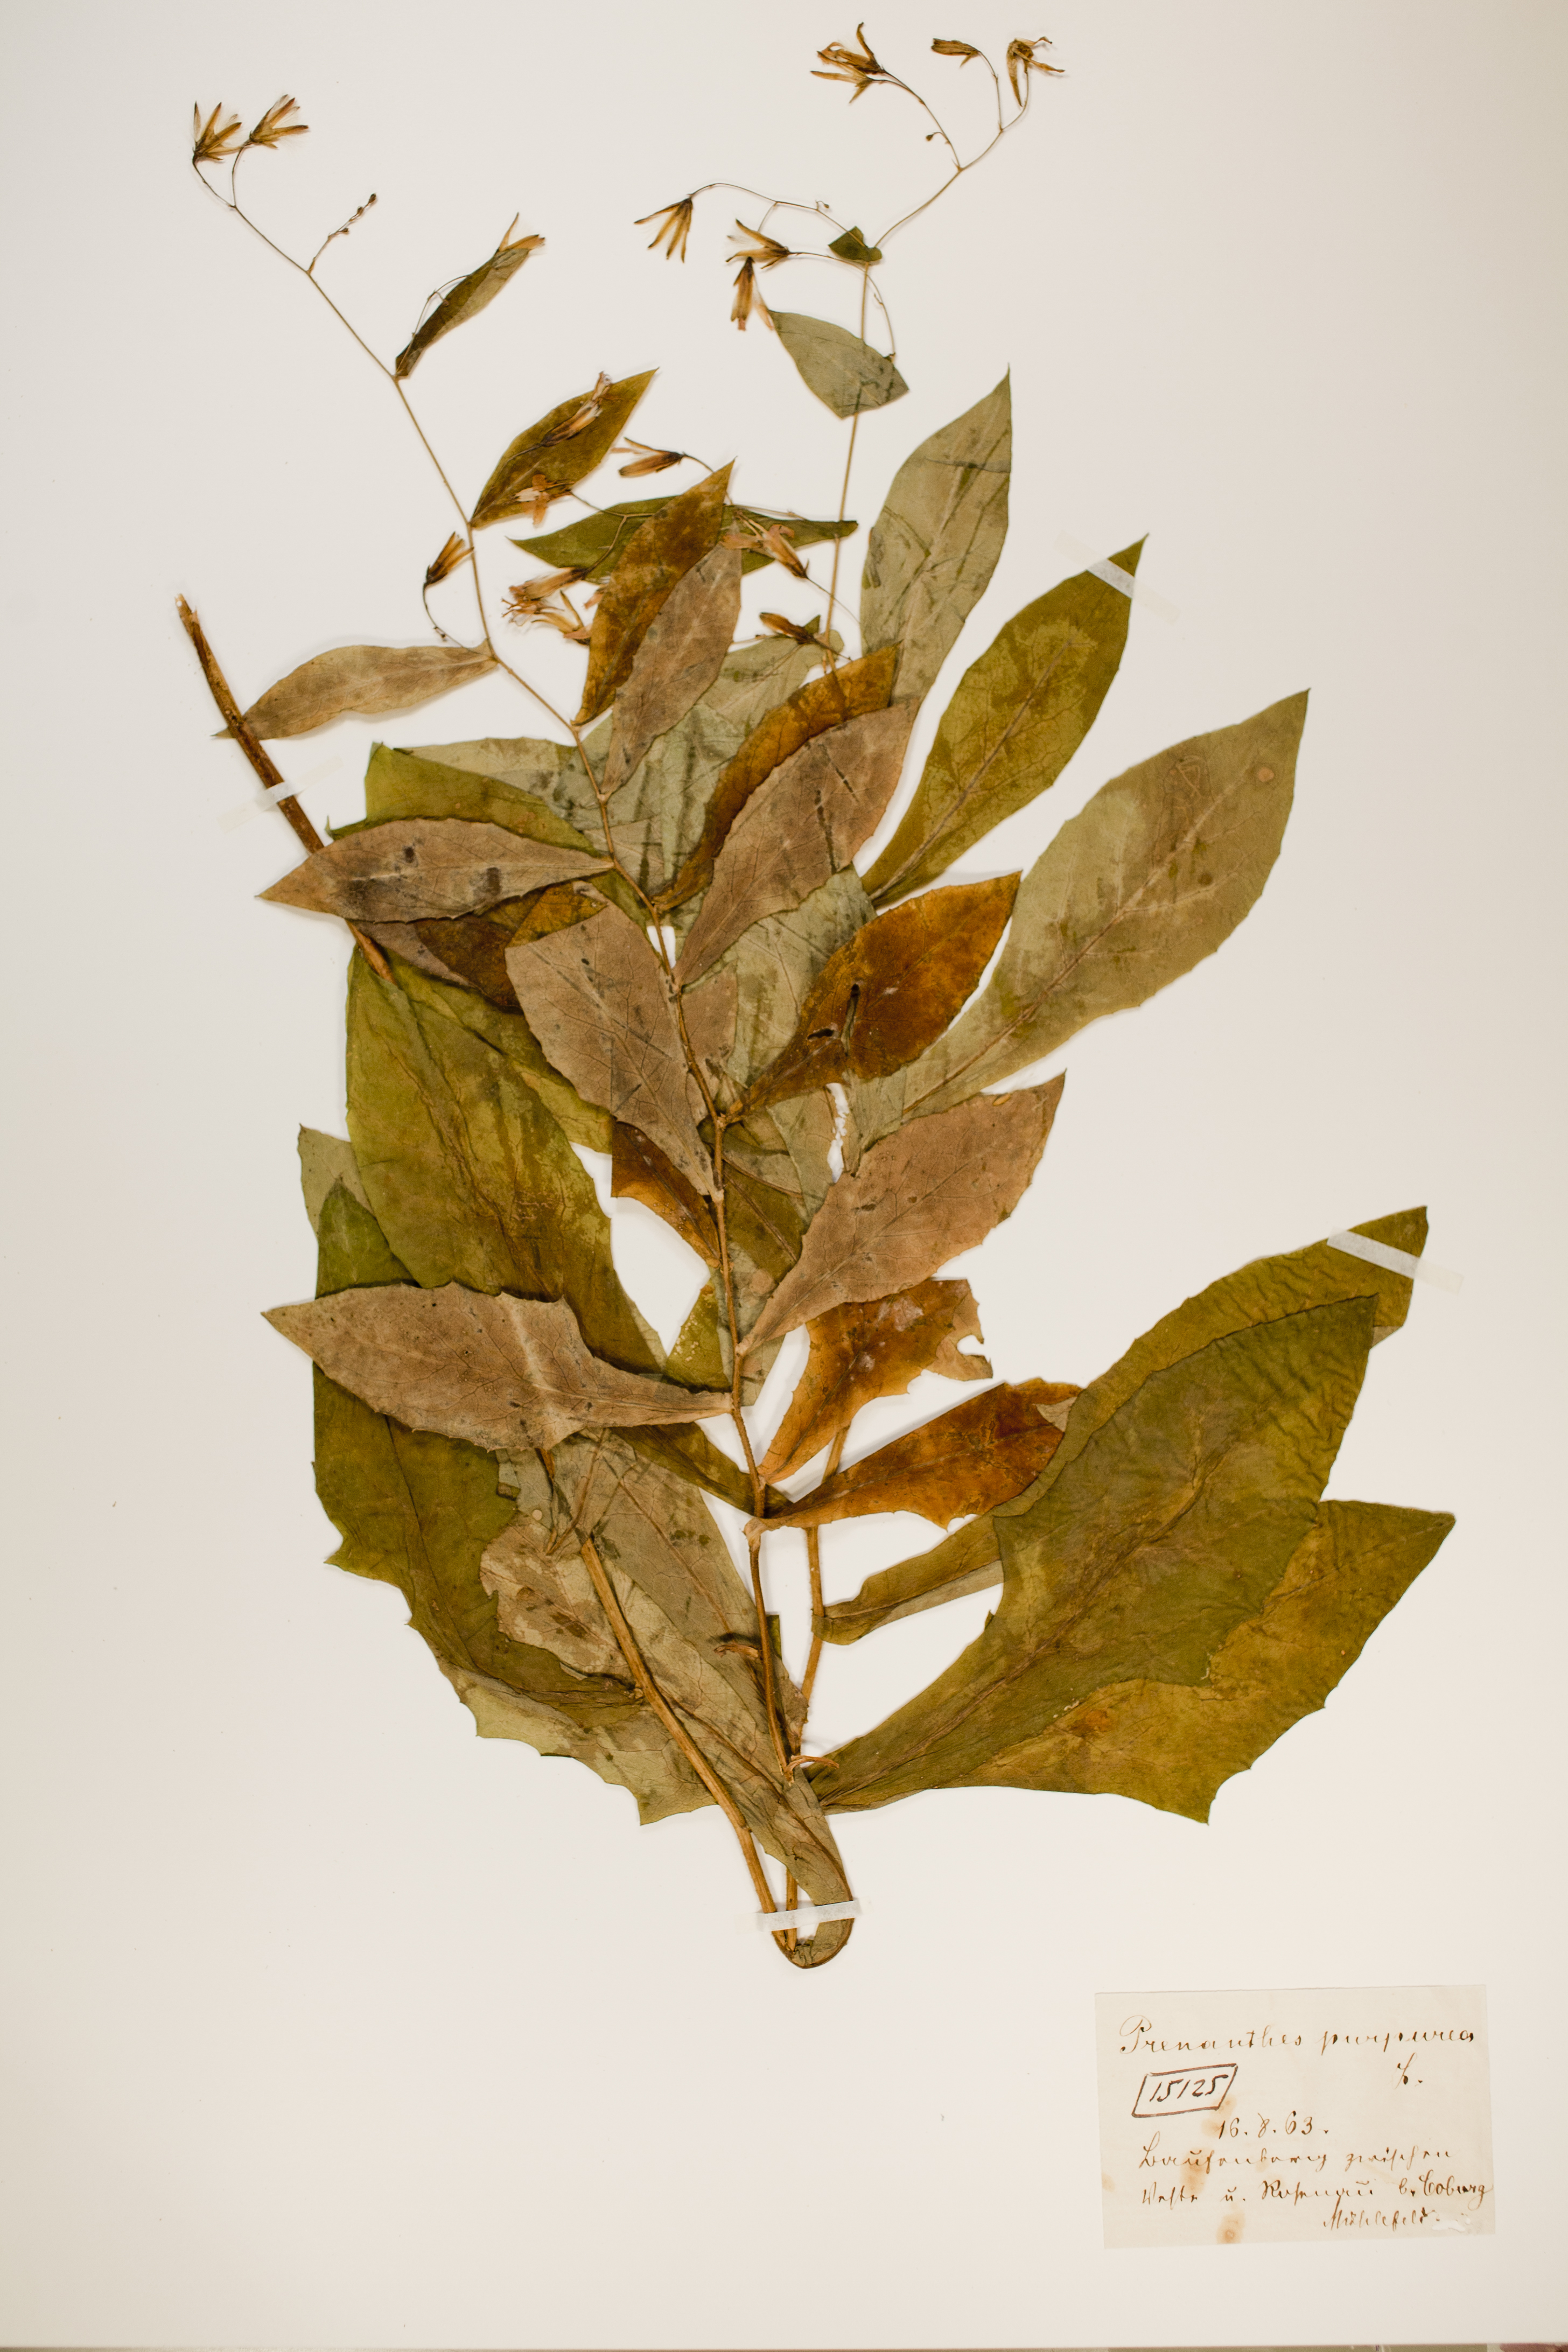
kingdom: Plantae
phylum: Tracheophyta
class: Magnoliopsida
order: Asterales
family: Asteraceae
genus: Prenanthes
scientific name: Prenanthes purpurea
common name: Purple lettuce
